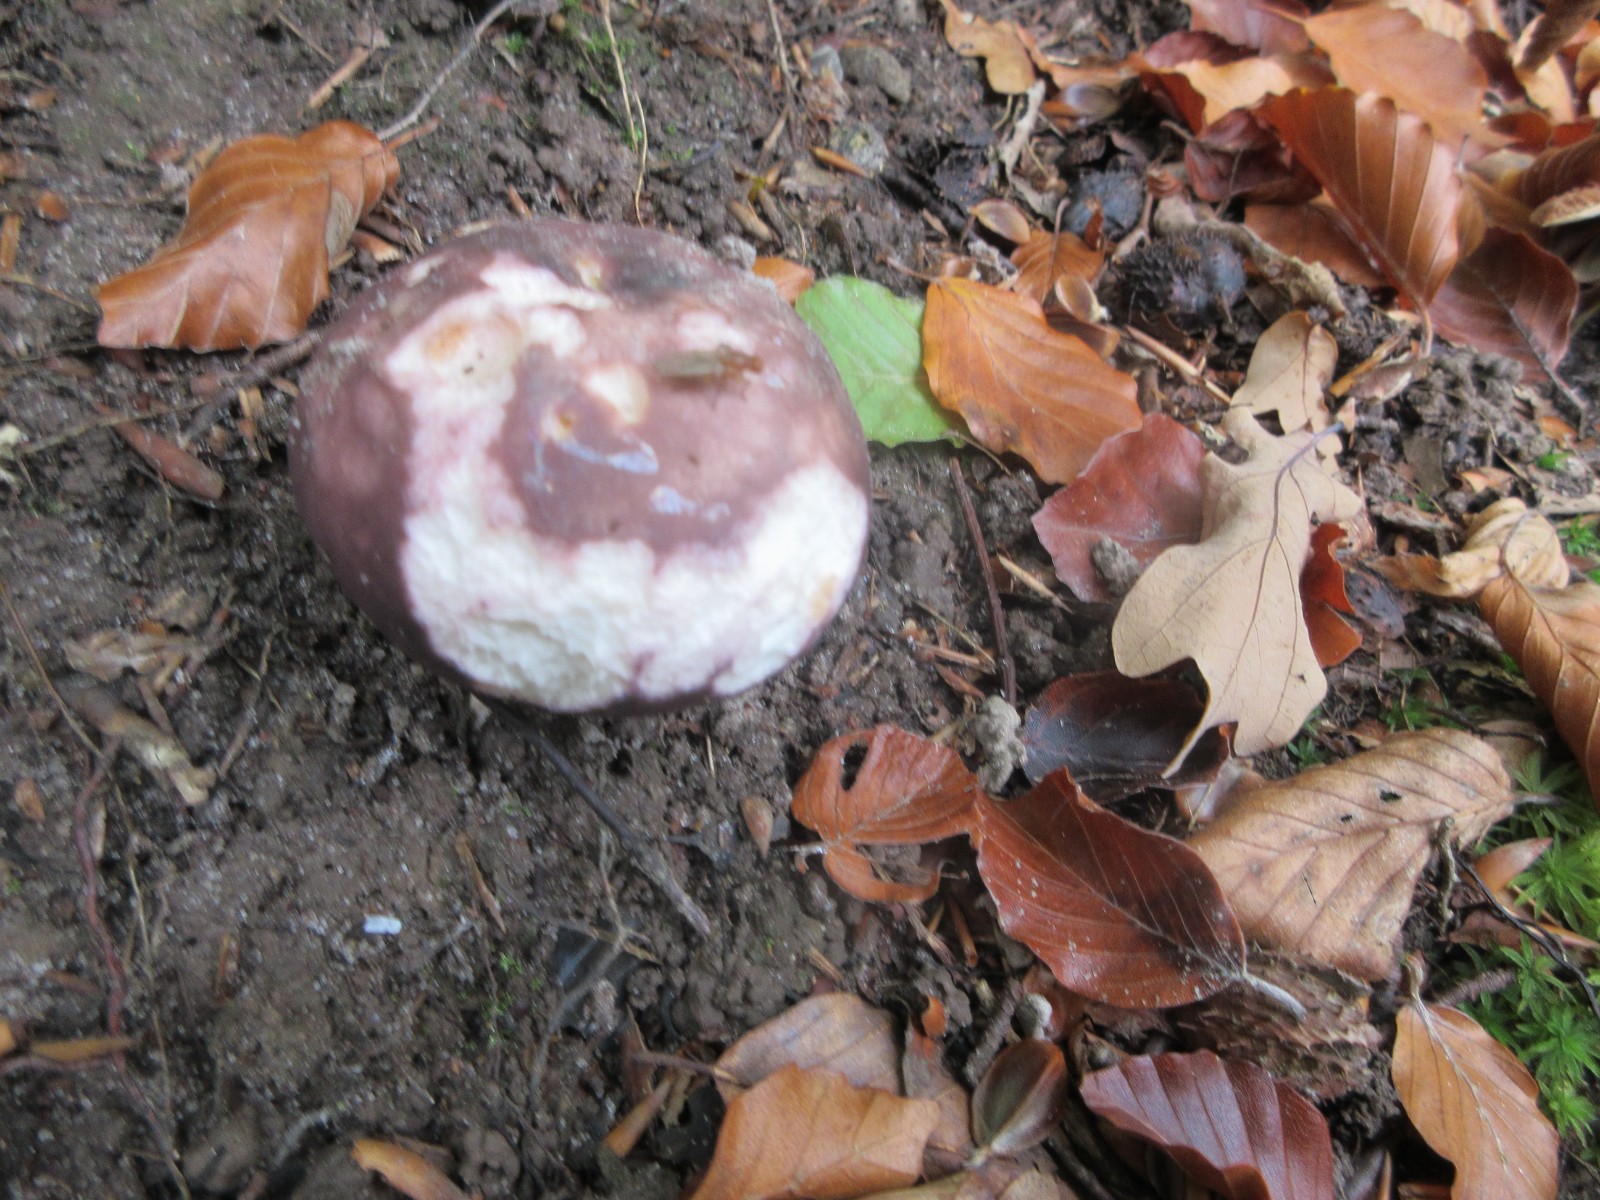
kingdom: Fungi
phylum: Basidiomycota
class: Agaricomycetes
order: Russulales
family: Russulaceae
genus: Russula
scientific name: Russula vesca
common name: spiselig skørhat
